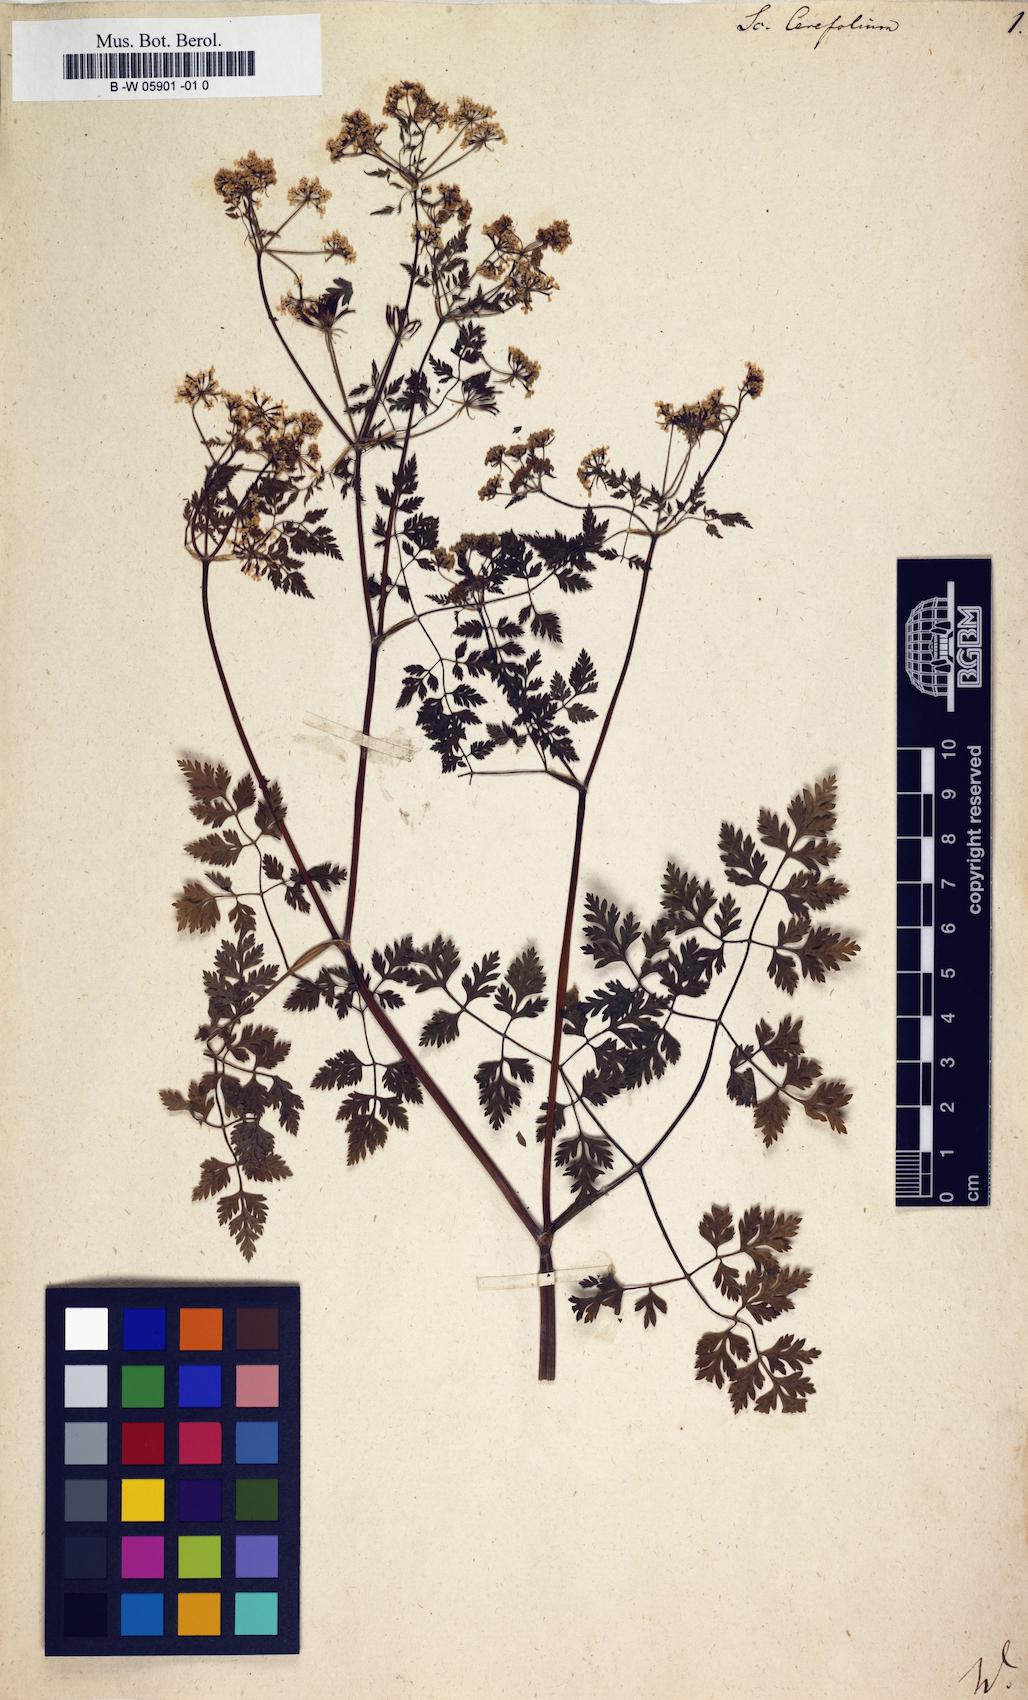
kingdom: Plantae
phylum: Tracheophyta
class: Magnoliopsida
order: Apiales
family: Apiaceae
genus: Anthriscus
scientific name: Anthriscus cerefolium
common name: Garden chervil
